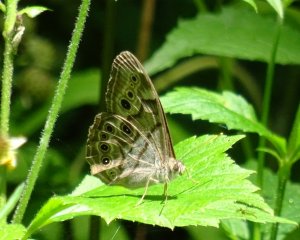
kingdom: Animalia
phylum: Arthropoda
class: Insecta
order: Lepidoptera
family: Nymphalidae
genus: Lethe
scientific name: Lethe anthedon
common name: Northern Pearly-Eye
